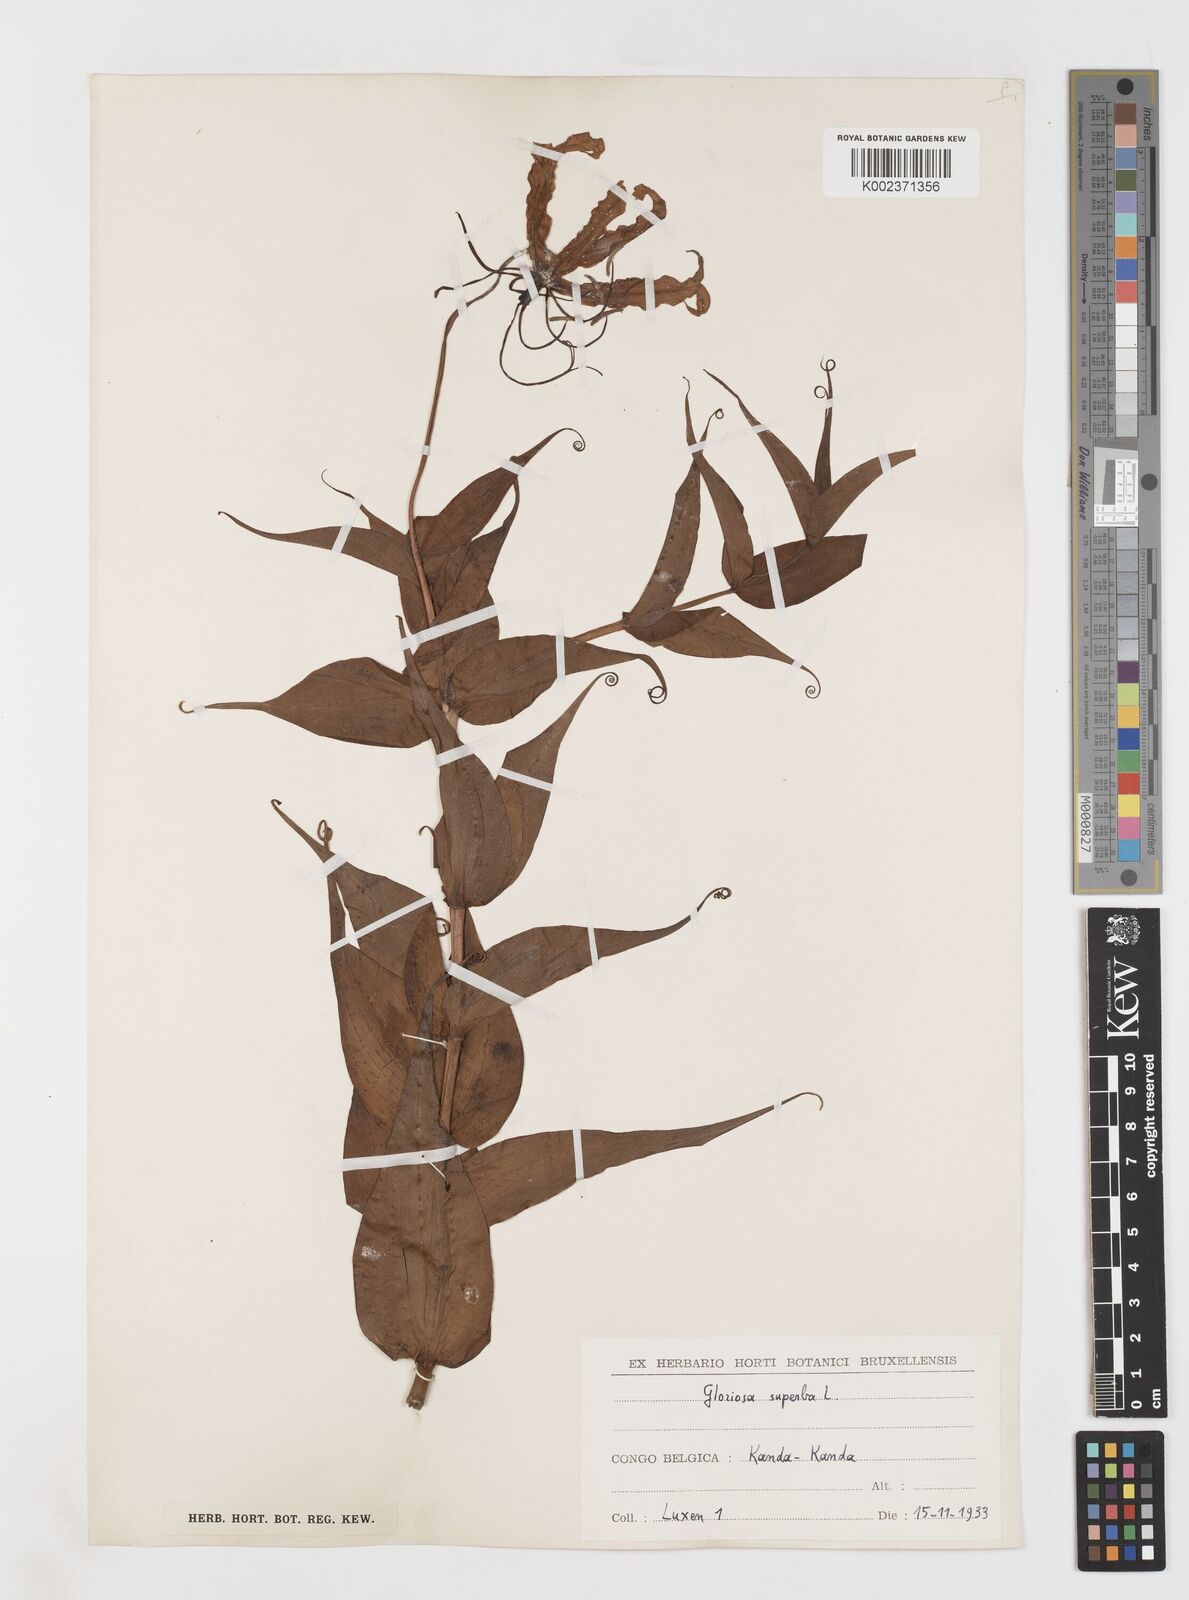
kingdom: Plantae
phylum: Tracheophyta
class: Liliopsida
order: Liliales
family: Colchicaceae
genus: Gloriosa
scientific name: Gloriosa superba
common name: Flame lily
